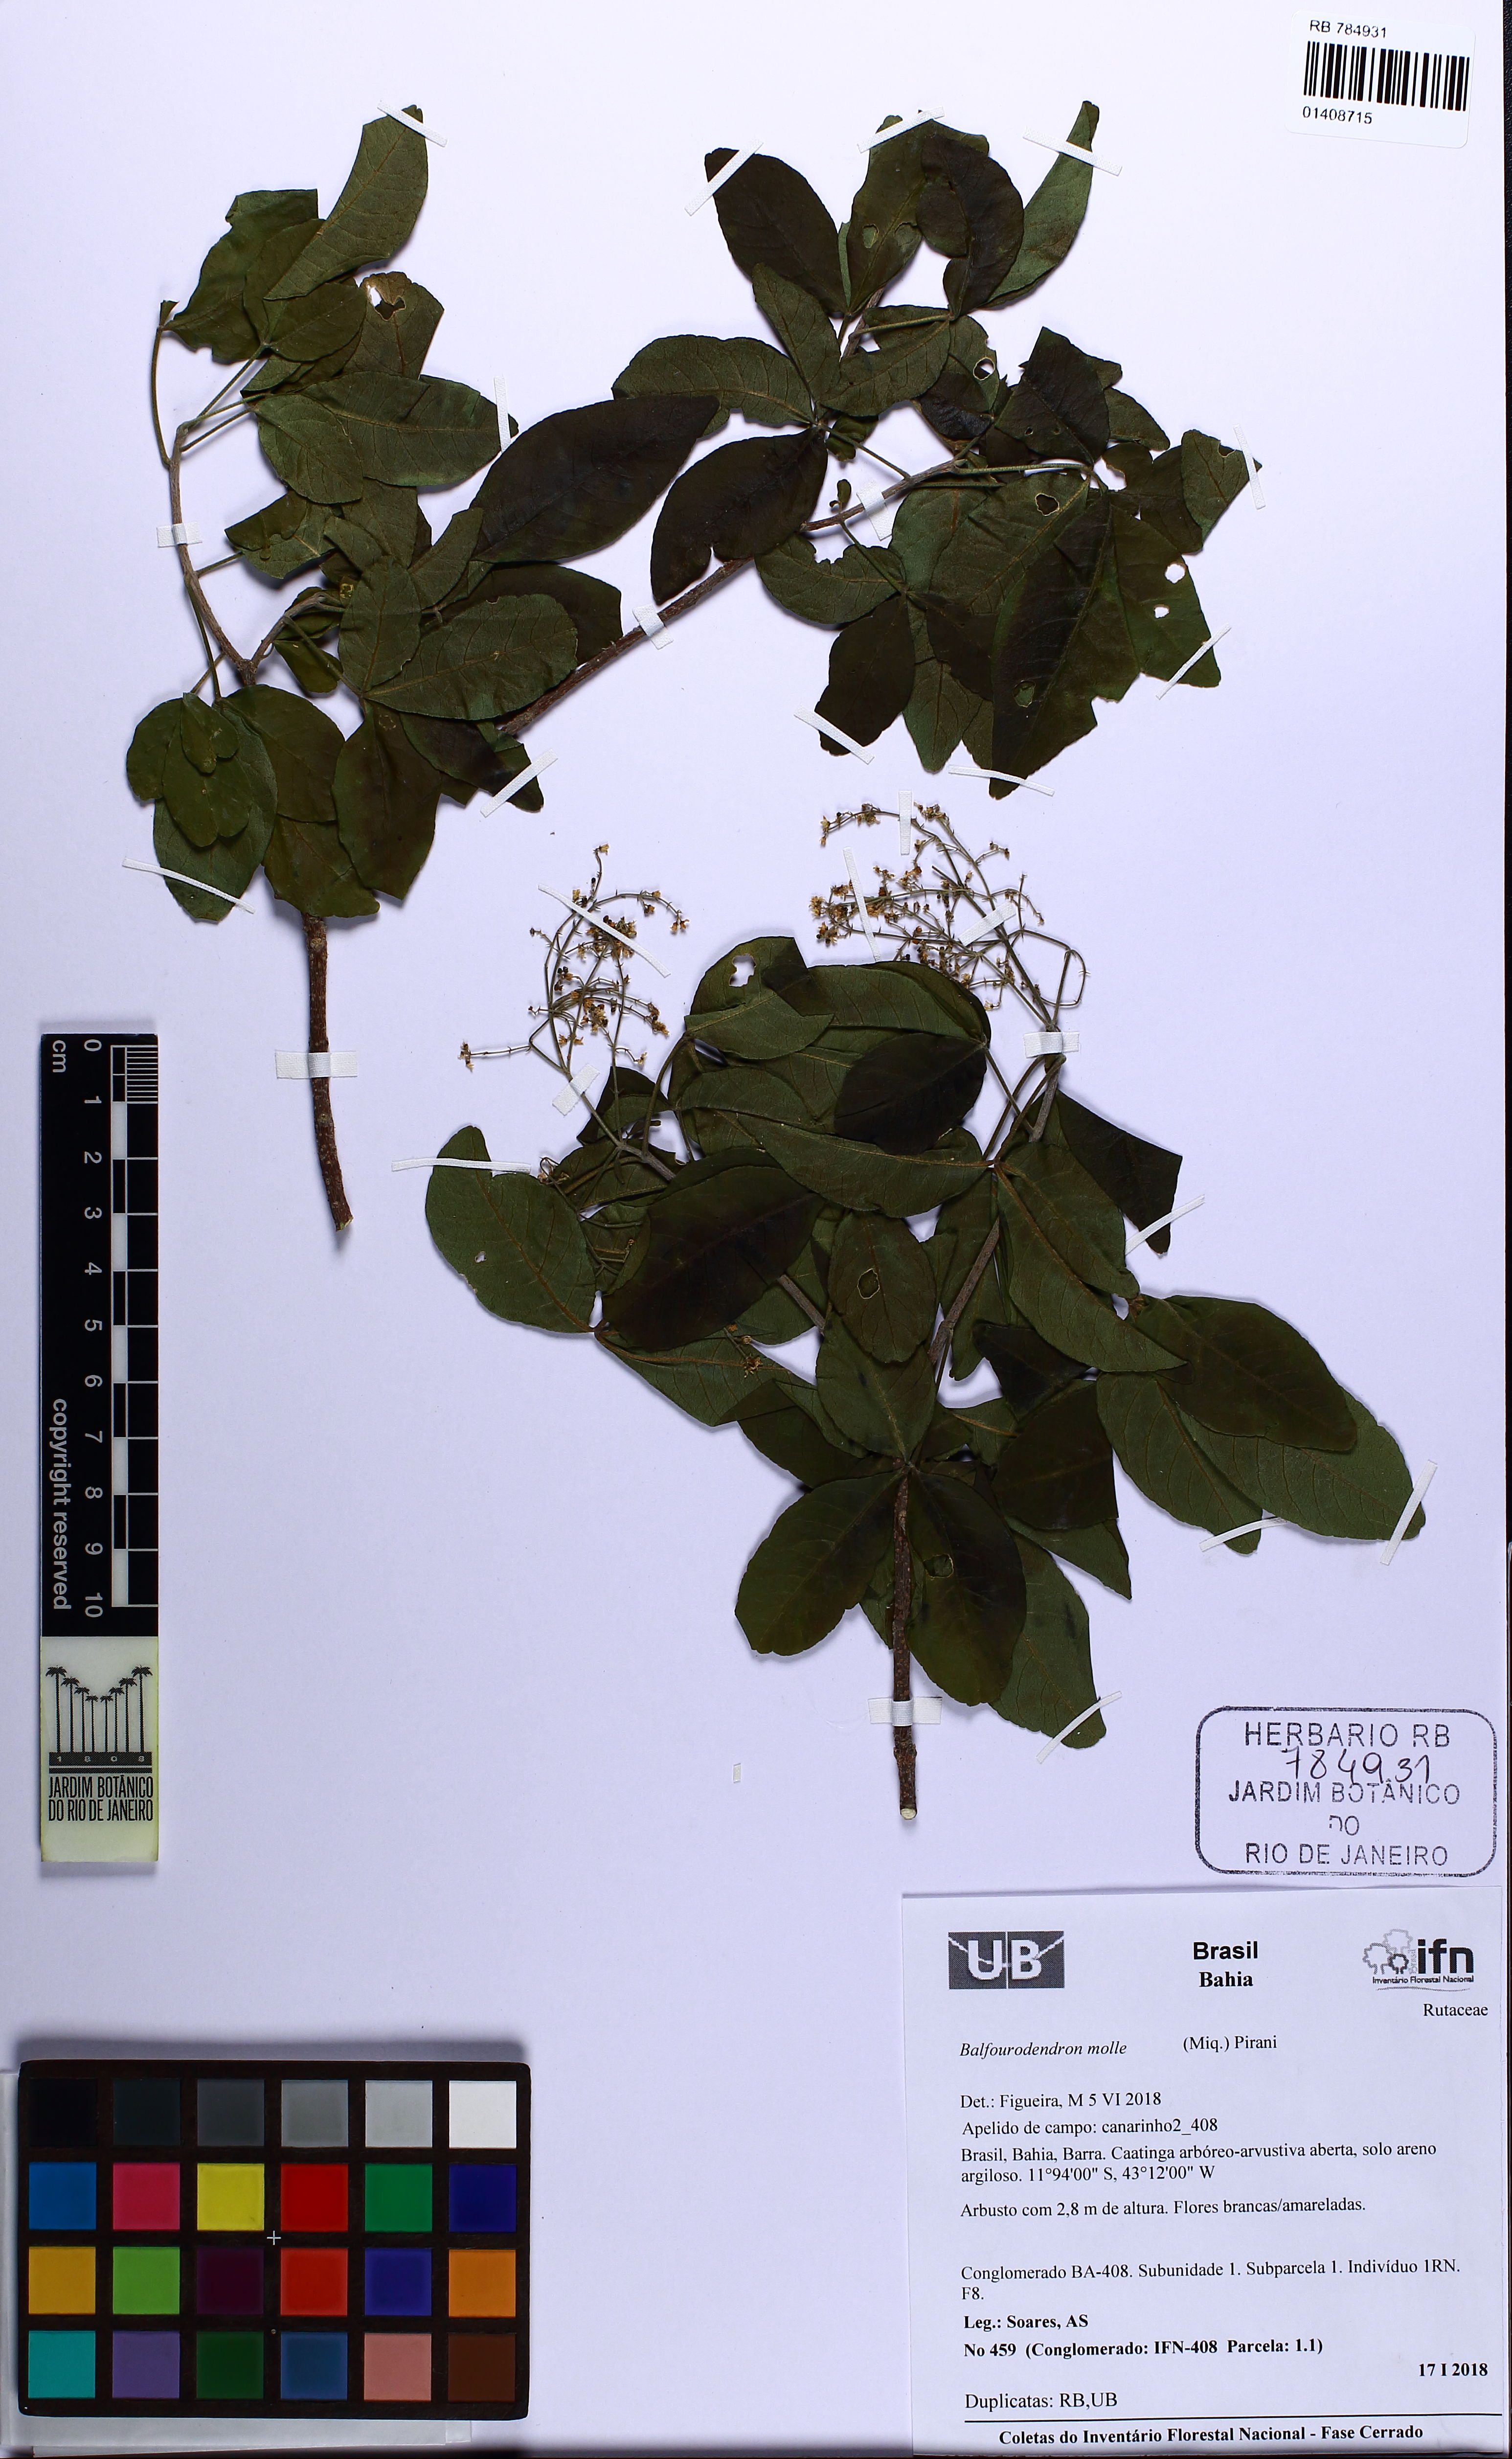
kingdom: Plantae
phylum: Tracheophyta
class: Magnoliopsida
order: Sapindales
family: Rutaceae
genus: Balfourodendron
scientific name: Balfourodendron molle
